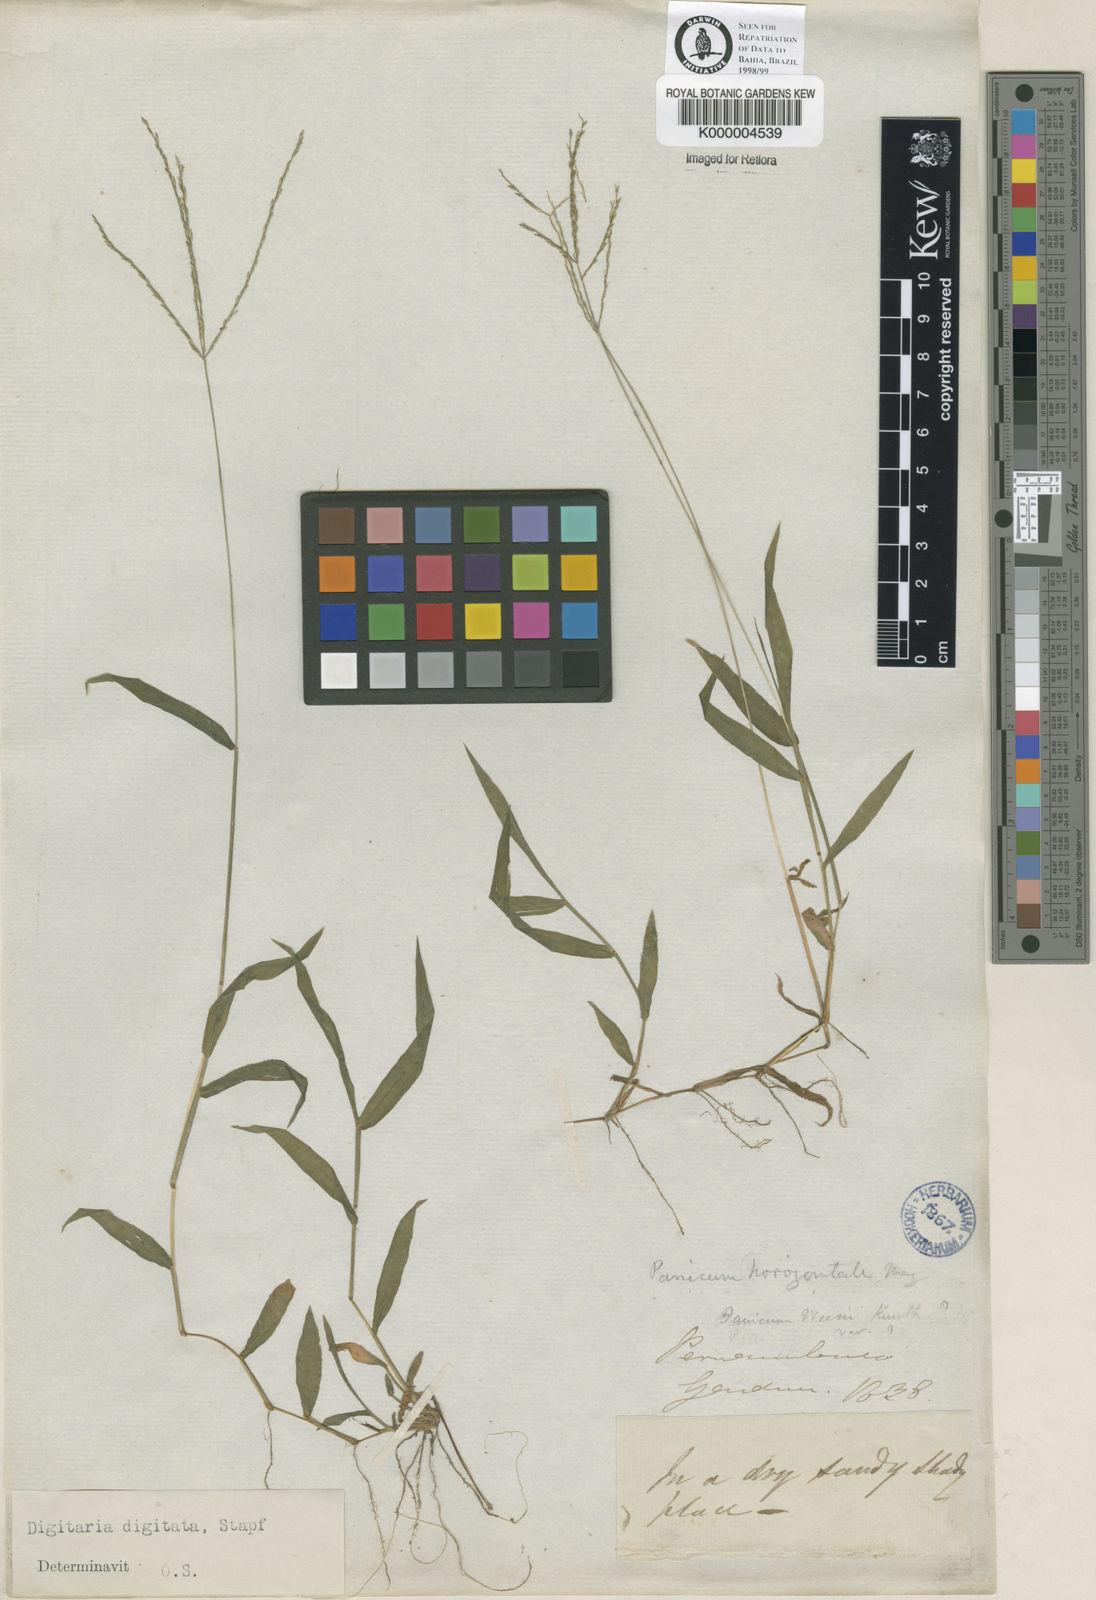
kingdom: Plantae
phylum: Tracheophyta
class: Liliopsida
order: Poales
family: Poaceae
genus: Digitaria
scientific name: Digitaria horizontalis
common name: Jamaican crabgrass
